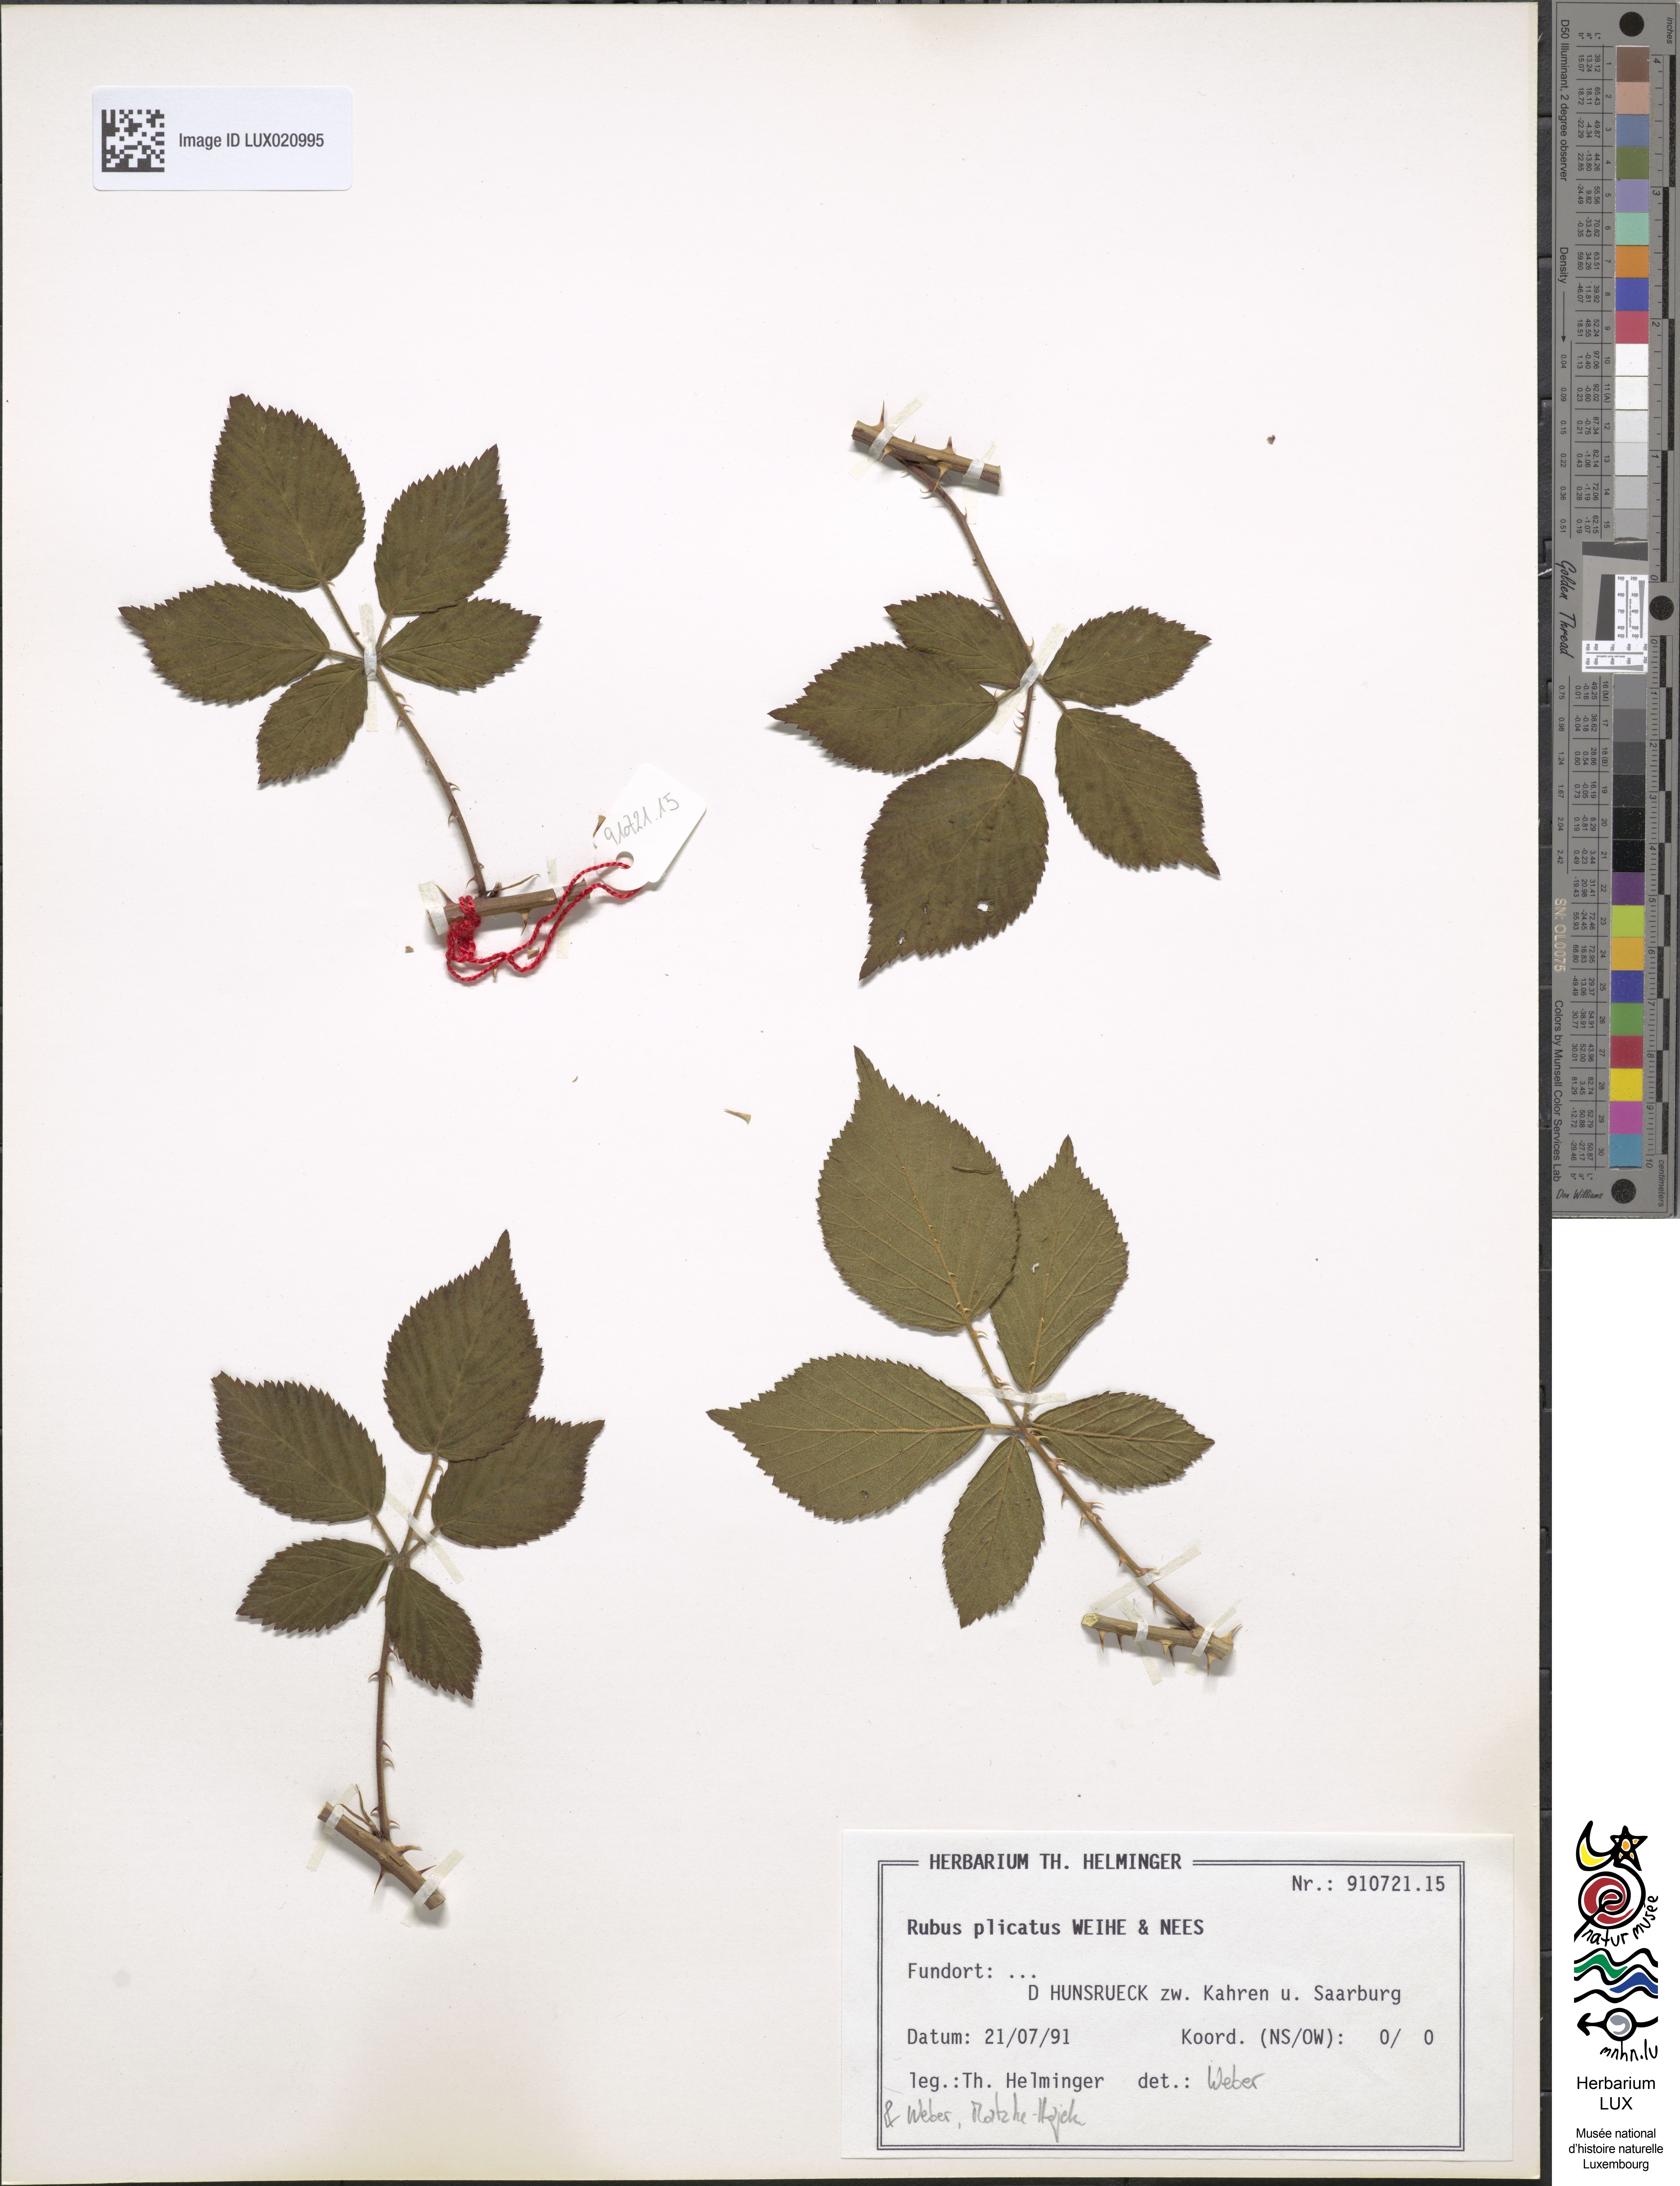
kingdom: Plantae
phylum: Tracheophyta
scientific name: Tracheophyta
